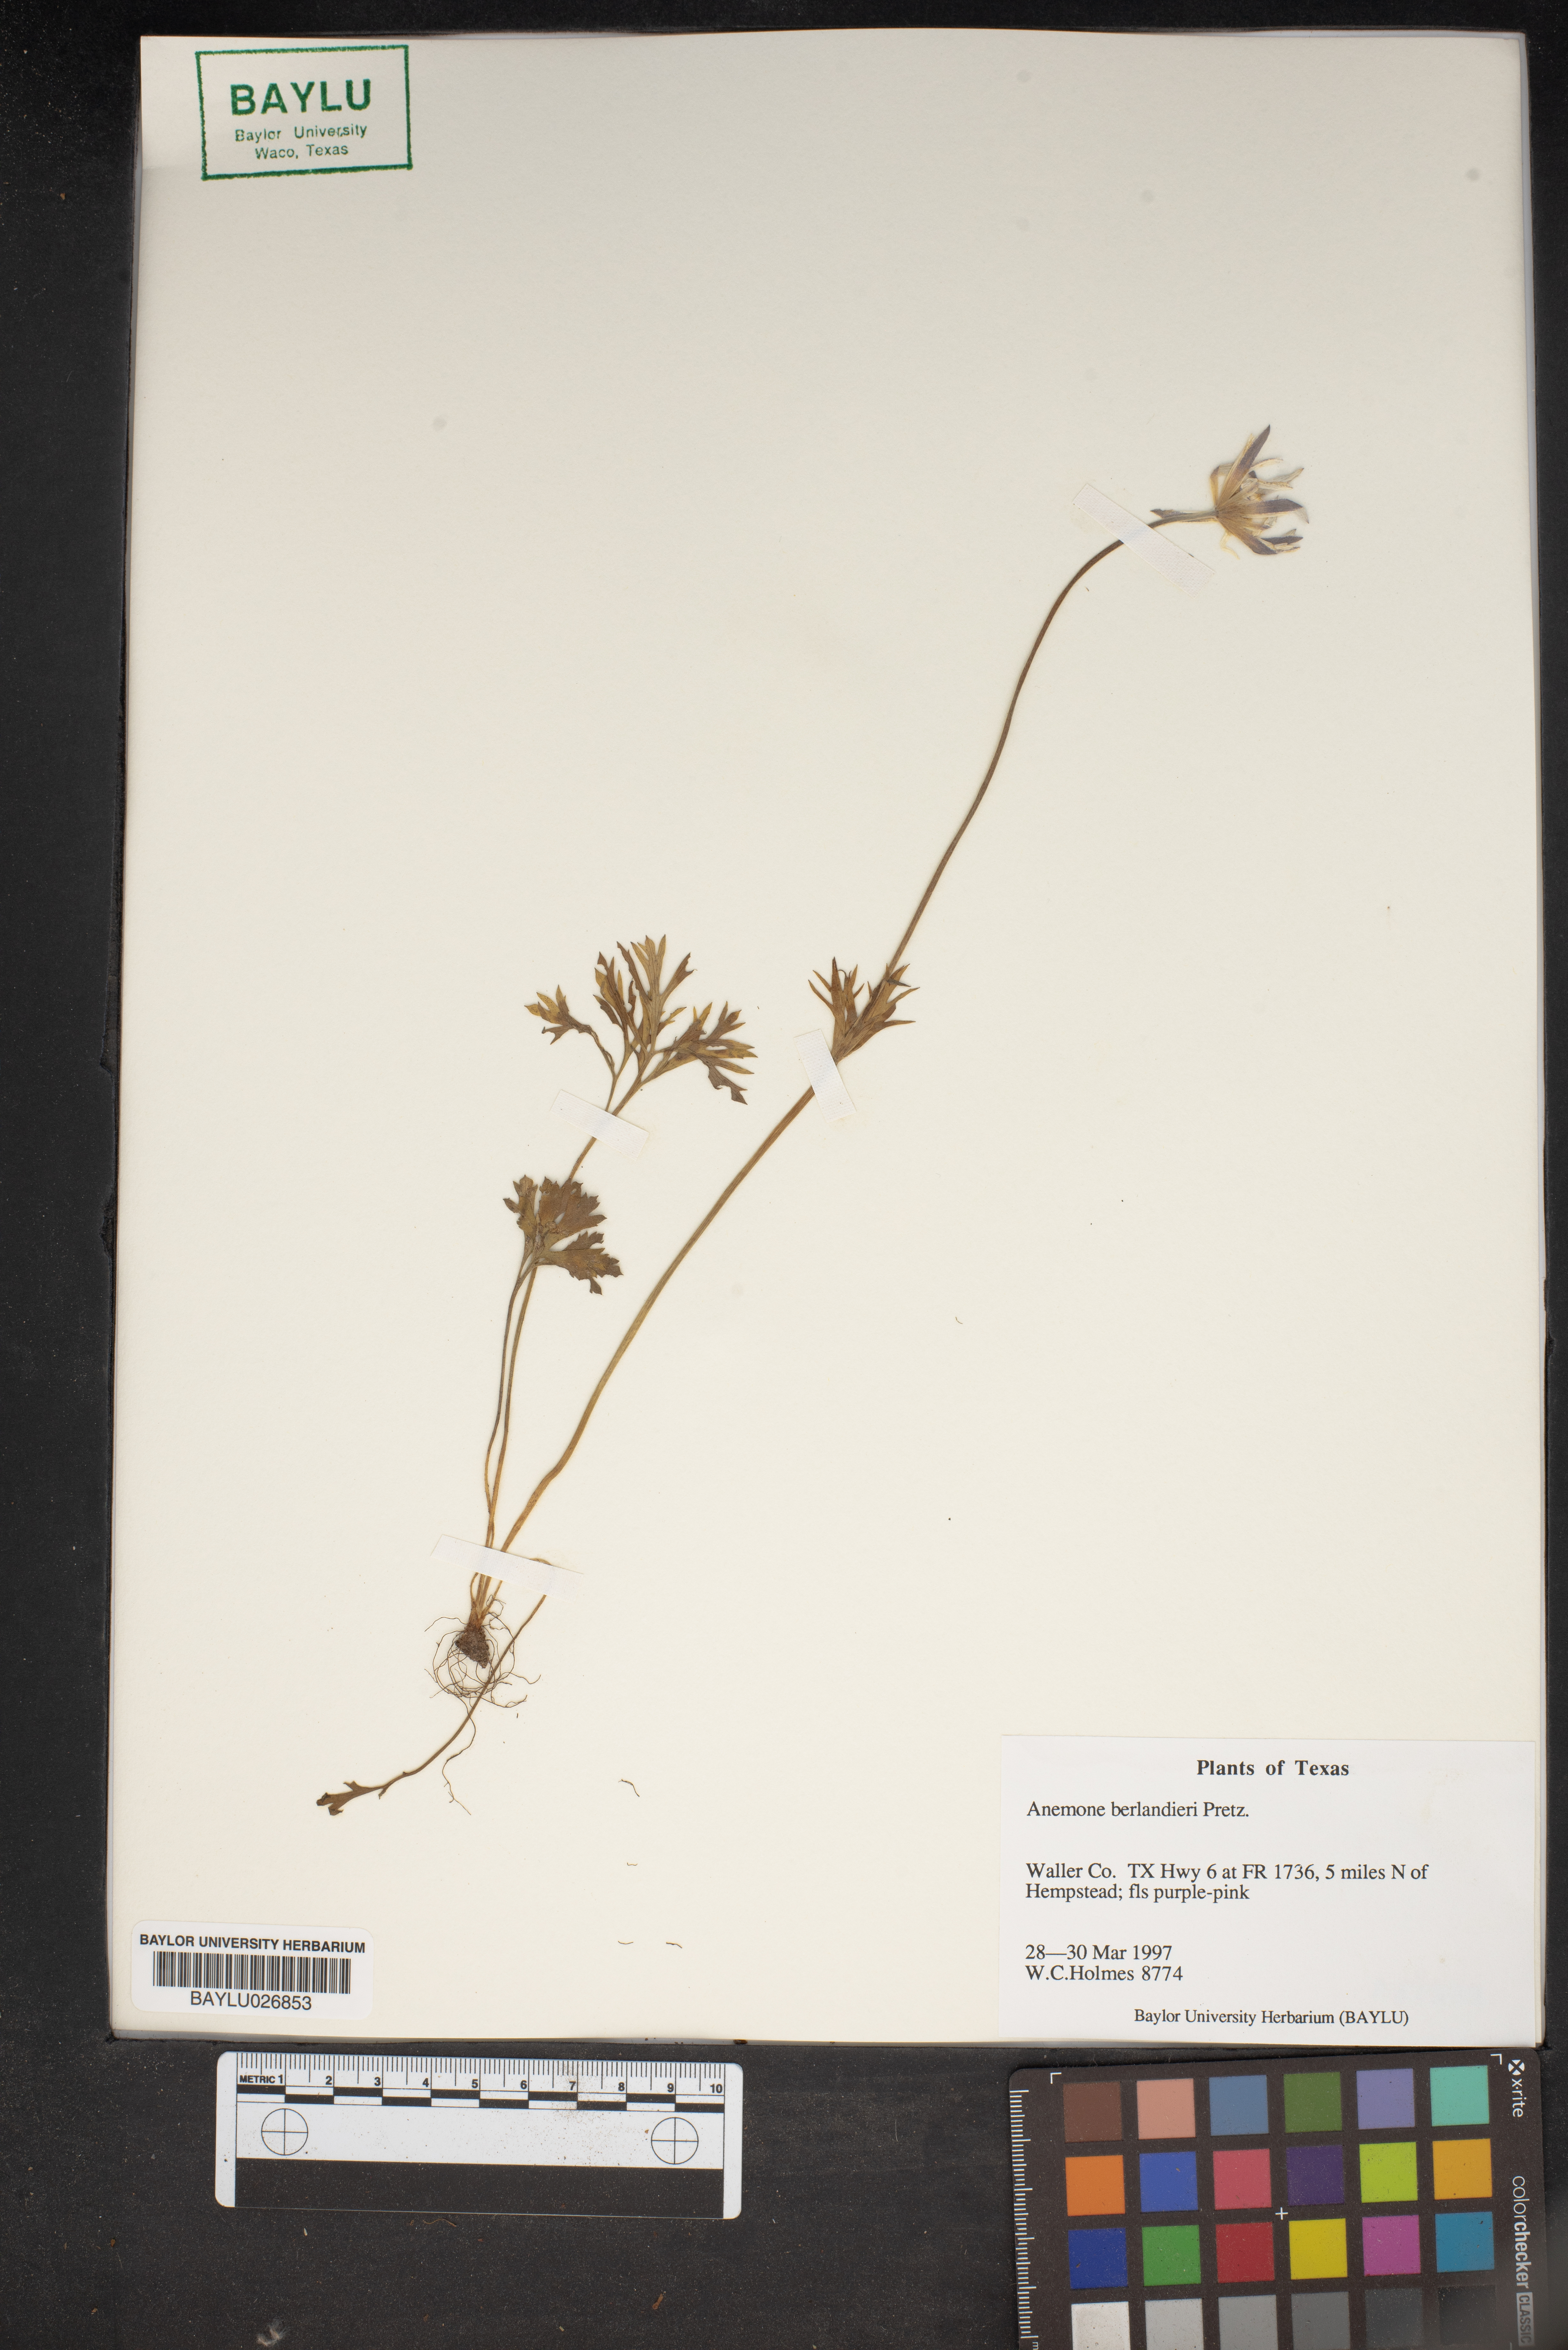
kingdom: Plantae
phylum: Tracheophyta
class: Magnoliopsida
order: Ranunculales
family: Ranunculaceae
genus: Anemone
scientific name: Anemone berlandieri
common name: Ten-petal anemone
